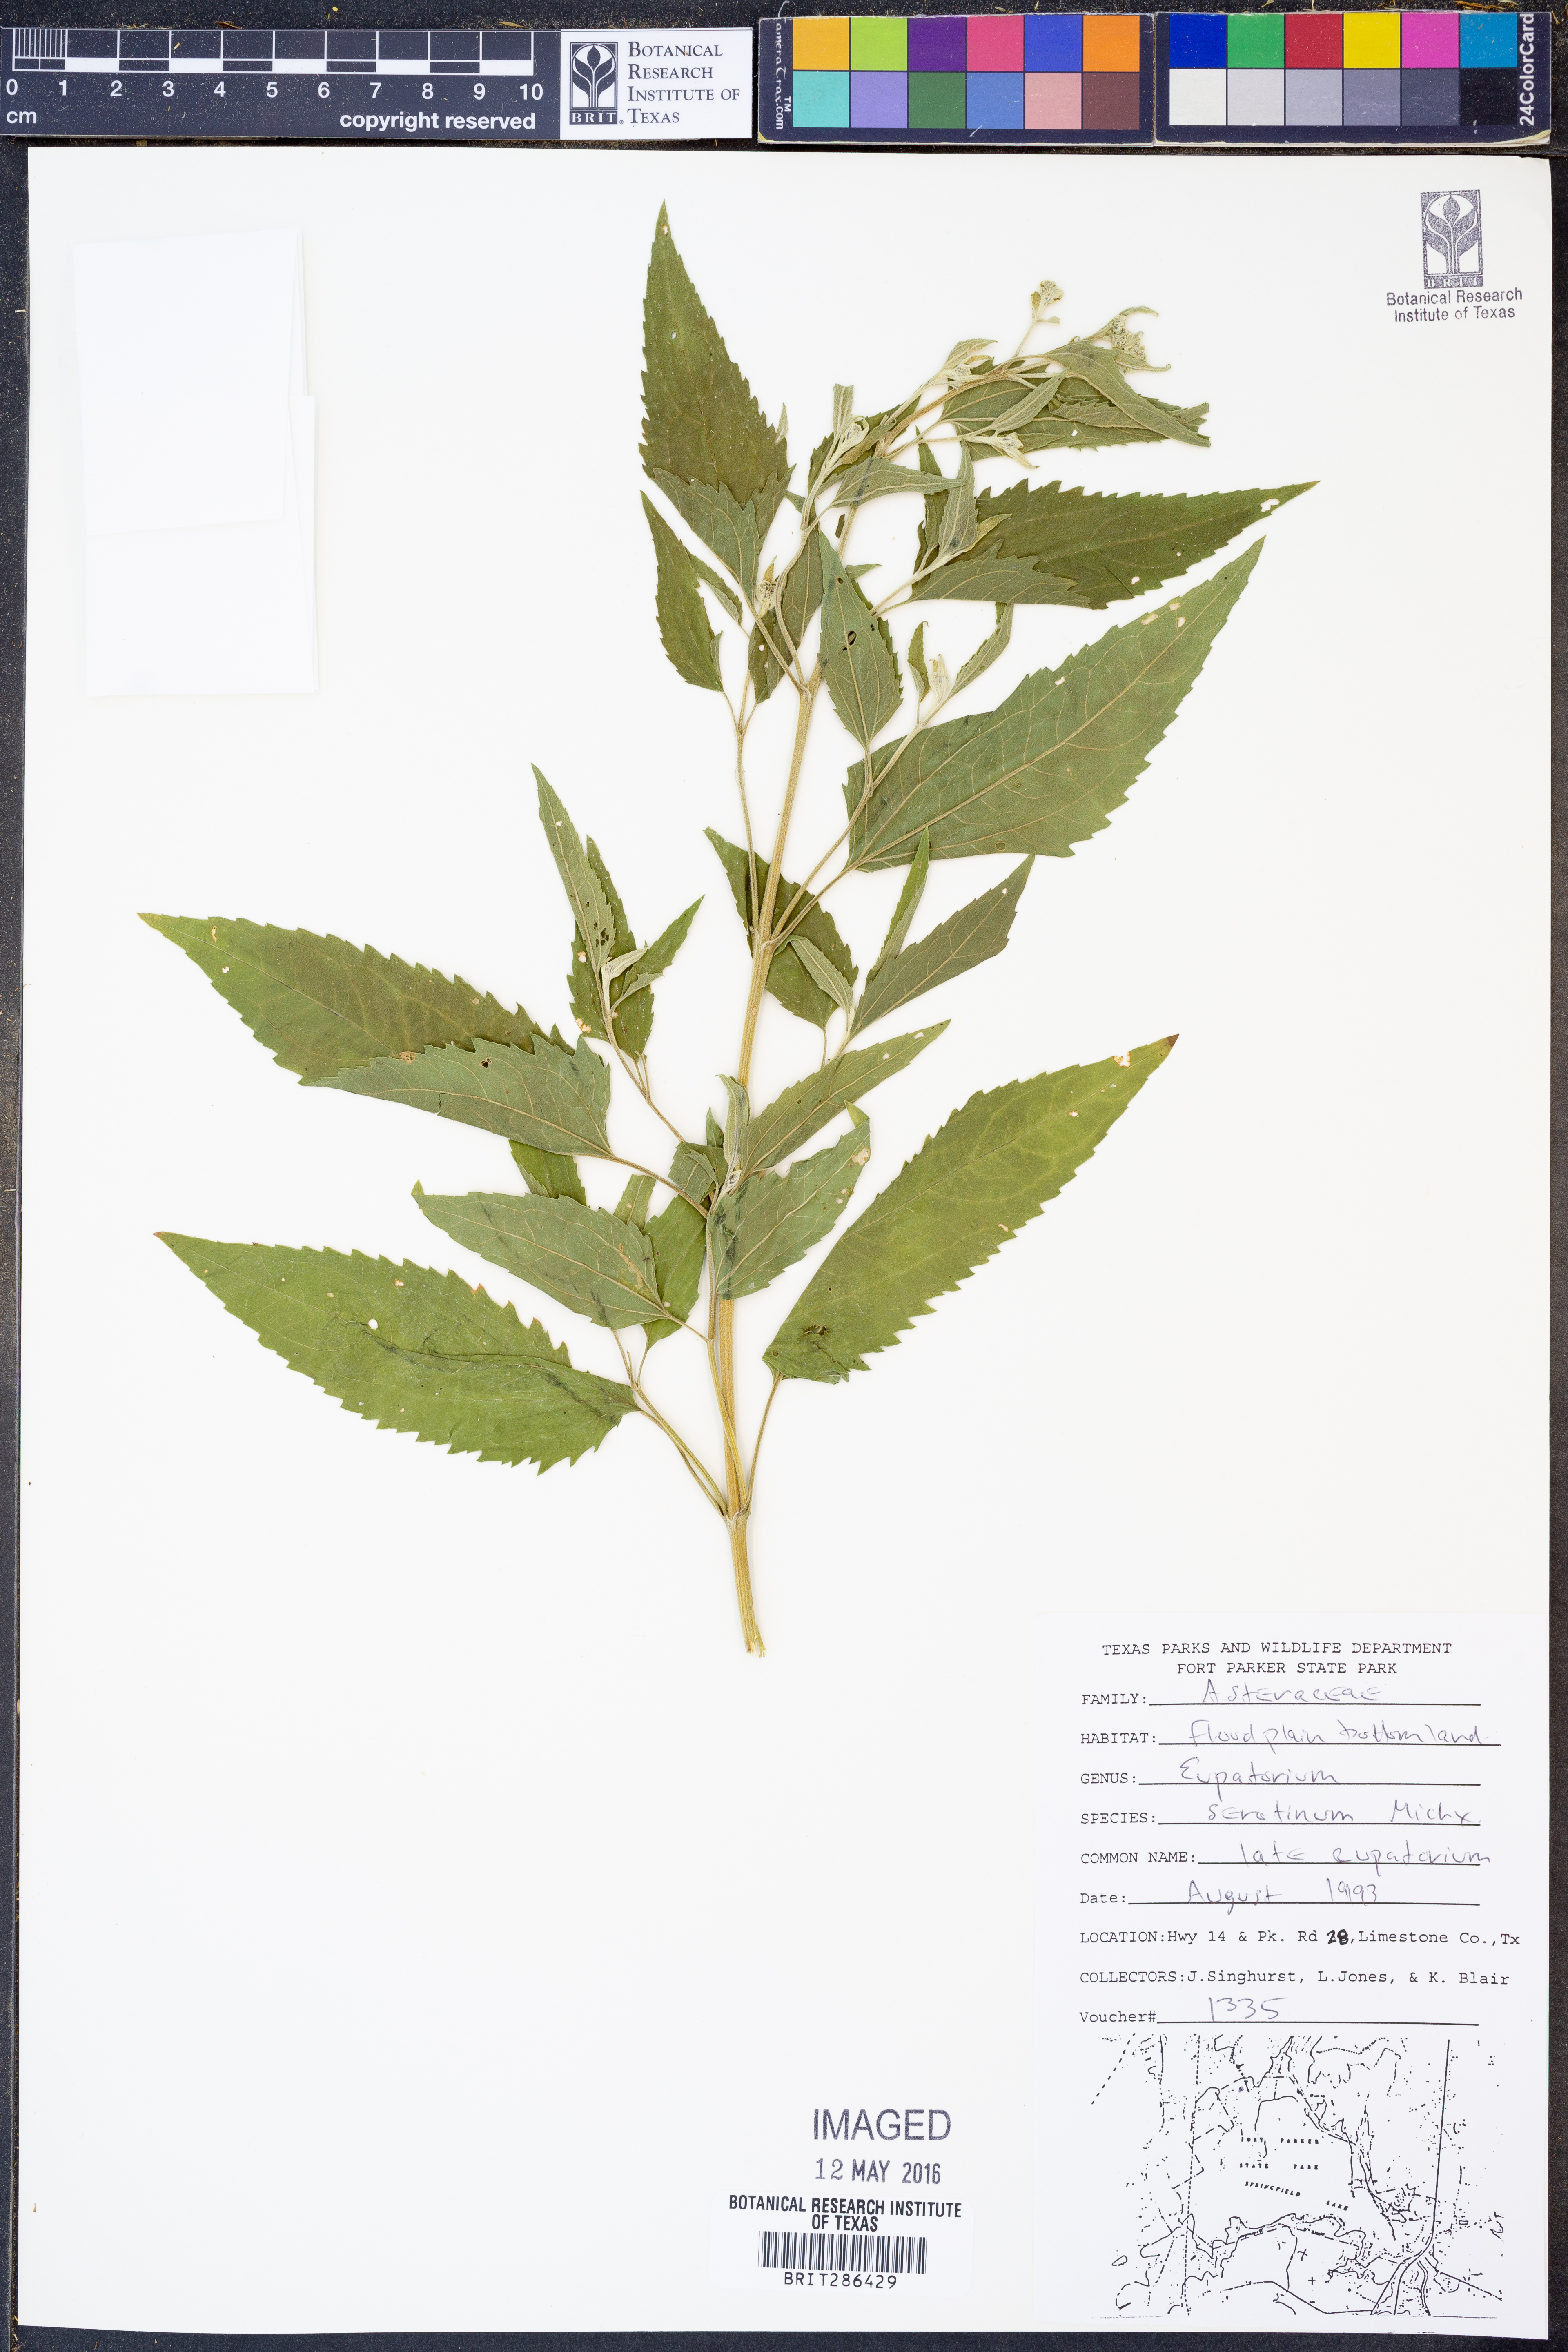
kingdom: Plantae
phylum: Tracheophyta
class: Magnoliopsida
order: Asterales
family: Asteraceae
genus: Eupatorium
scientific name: Eupatorium serotinum
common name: Late boneset
